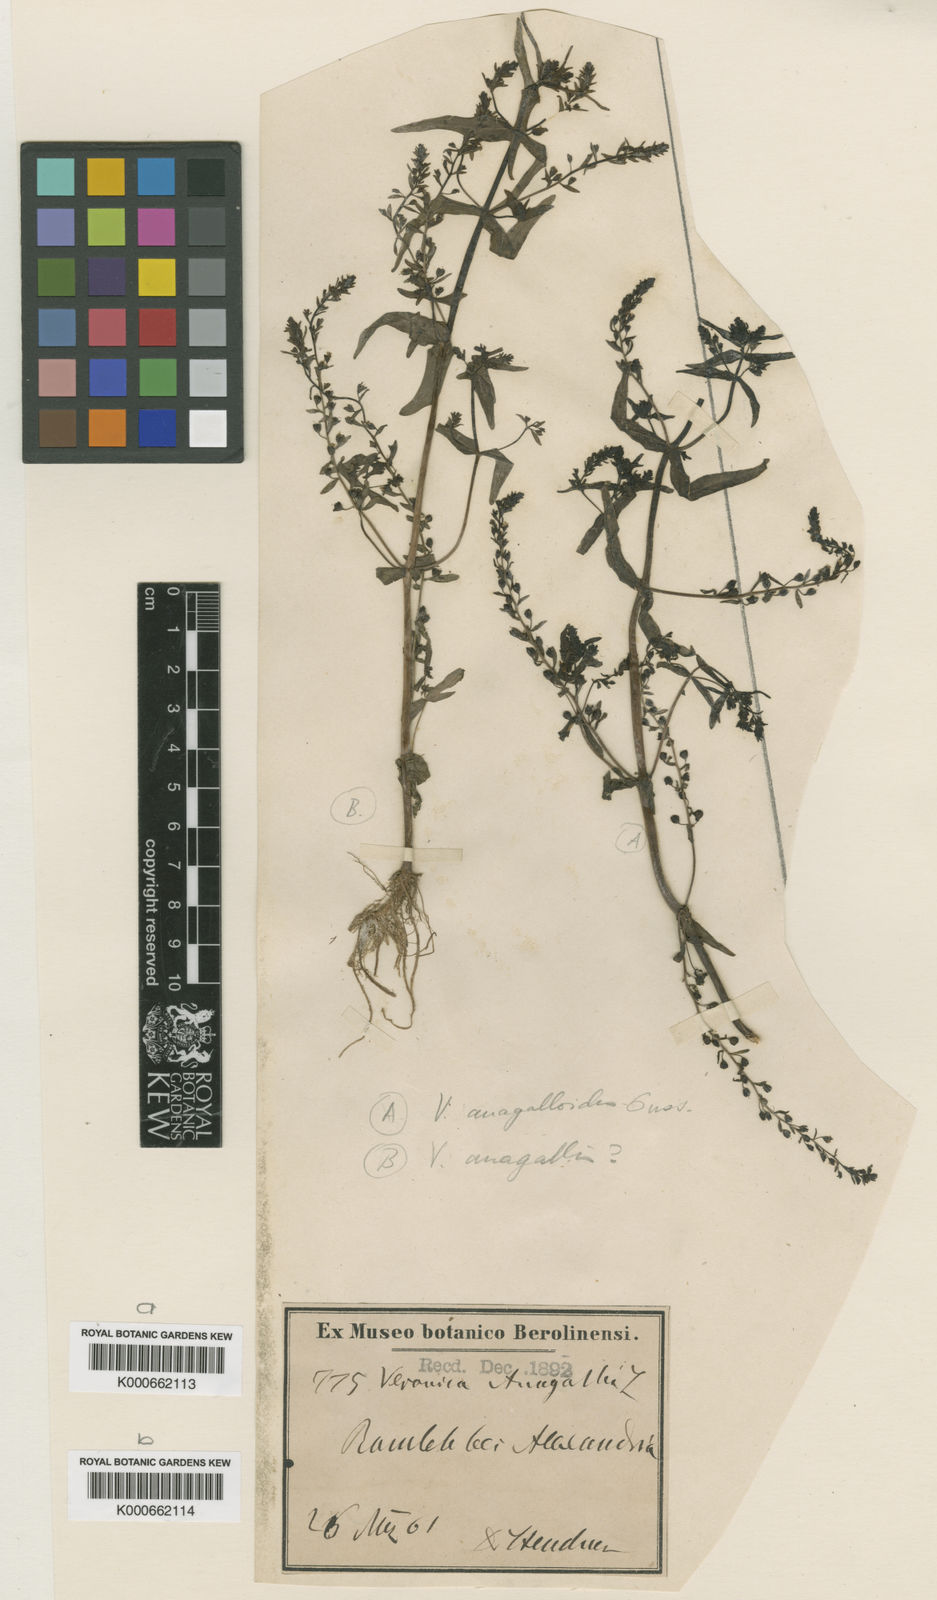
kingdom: Plantae
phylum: Tracheophyta
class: Magnoliopsida
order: Lamiales
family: Plantaginaceae
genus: Veronica
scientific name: Veronica anagalloides
